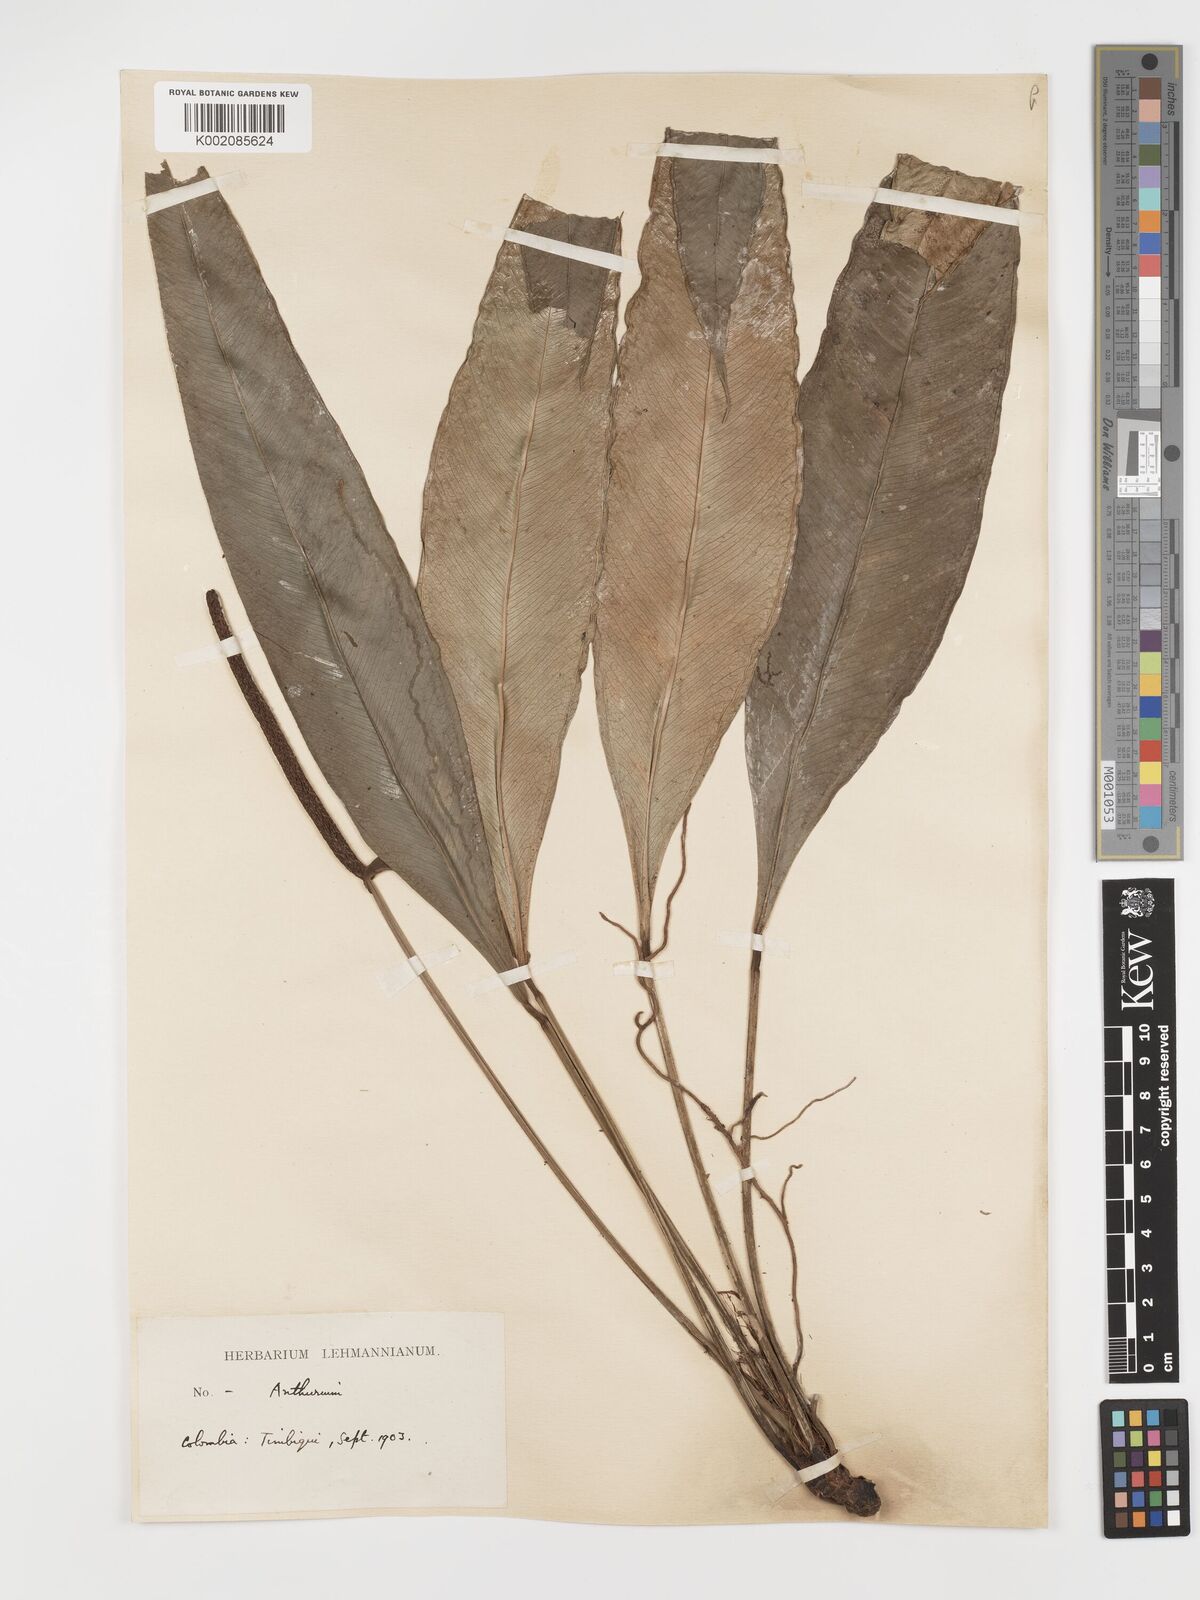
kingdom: Plantae
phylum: Tracheophyta
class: Liliopsida
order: Alismatales
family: Araceae
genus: Anthurium
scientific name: Anthurium aureum
